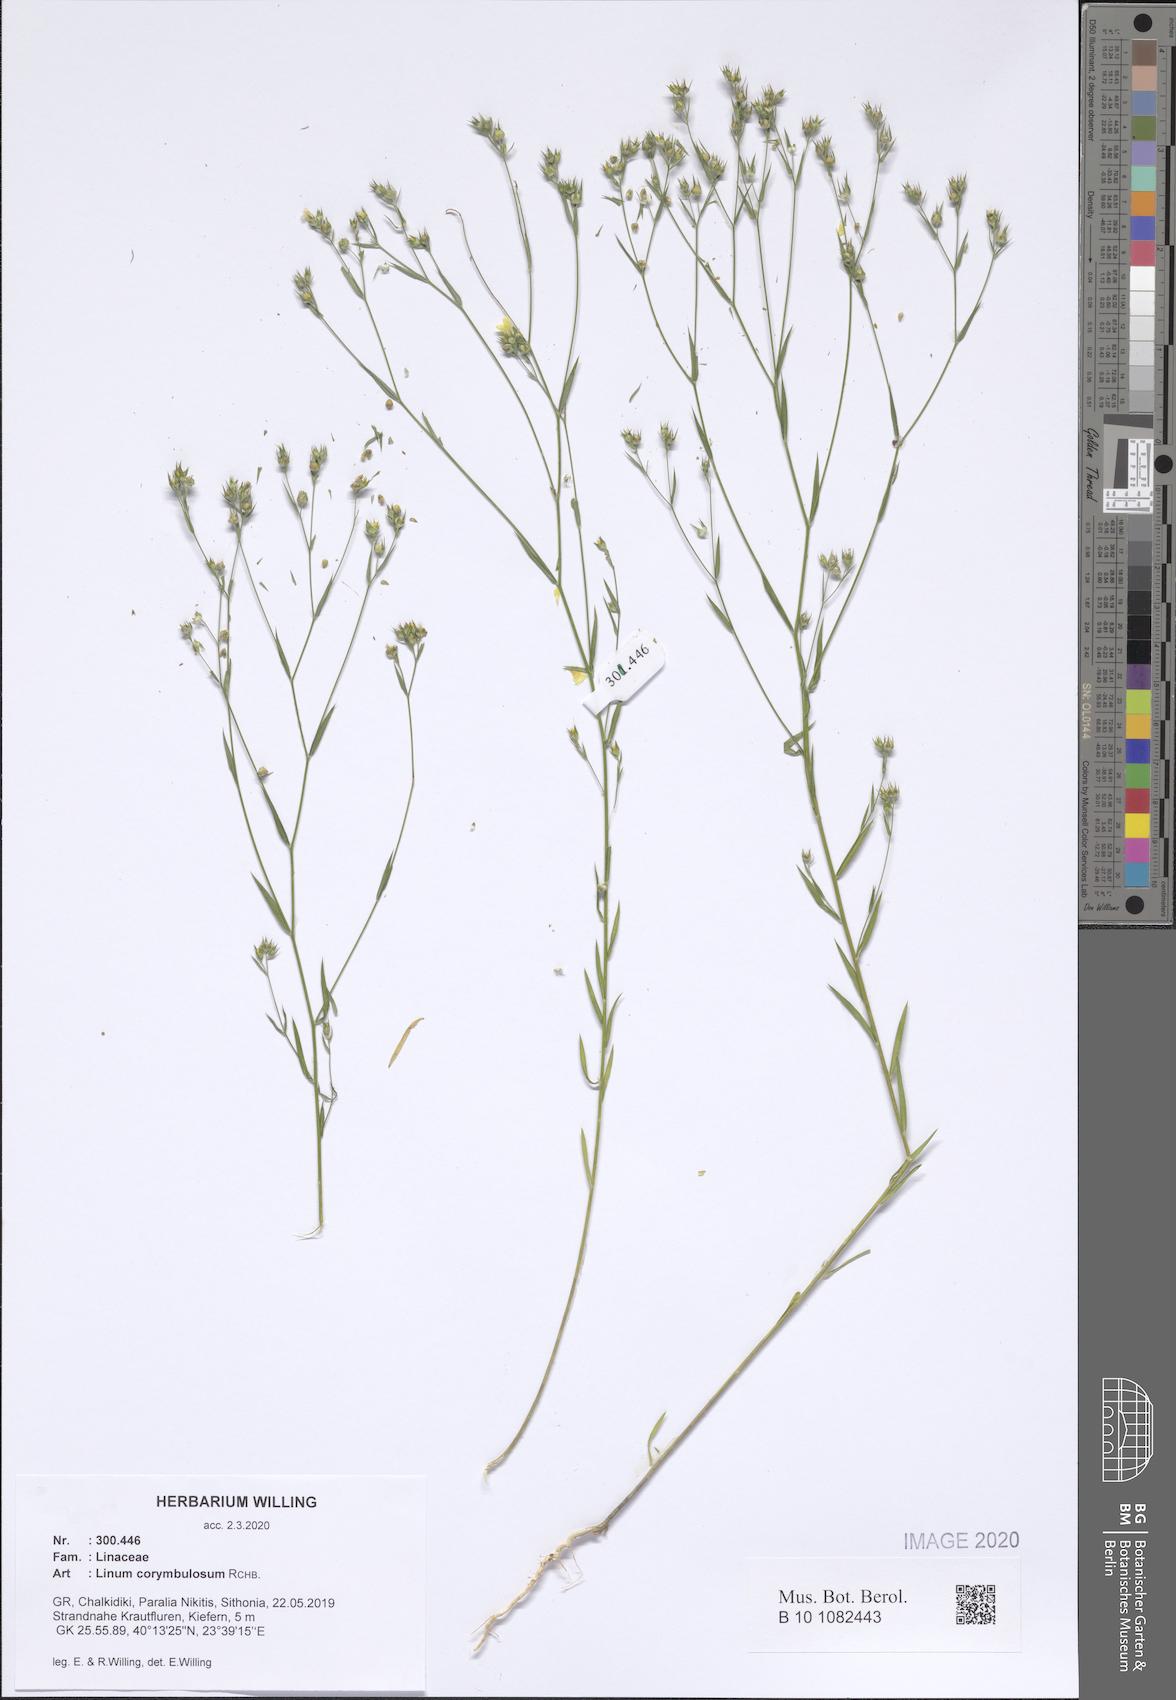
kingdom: Plantae
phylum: Tracheophyta
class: Magnoliopsida
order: Malpighiales
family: Linaceae
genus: Linum
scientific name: Linum corymbulosum
